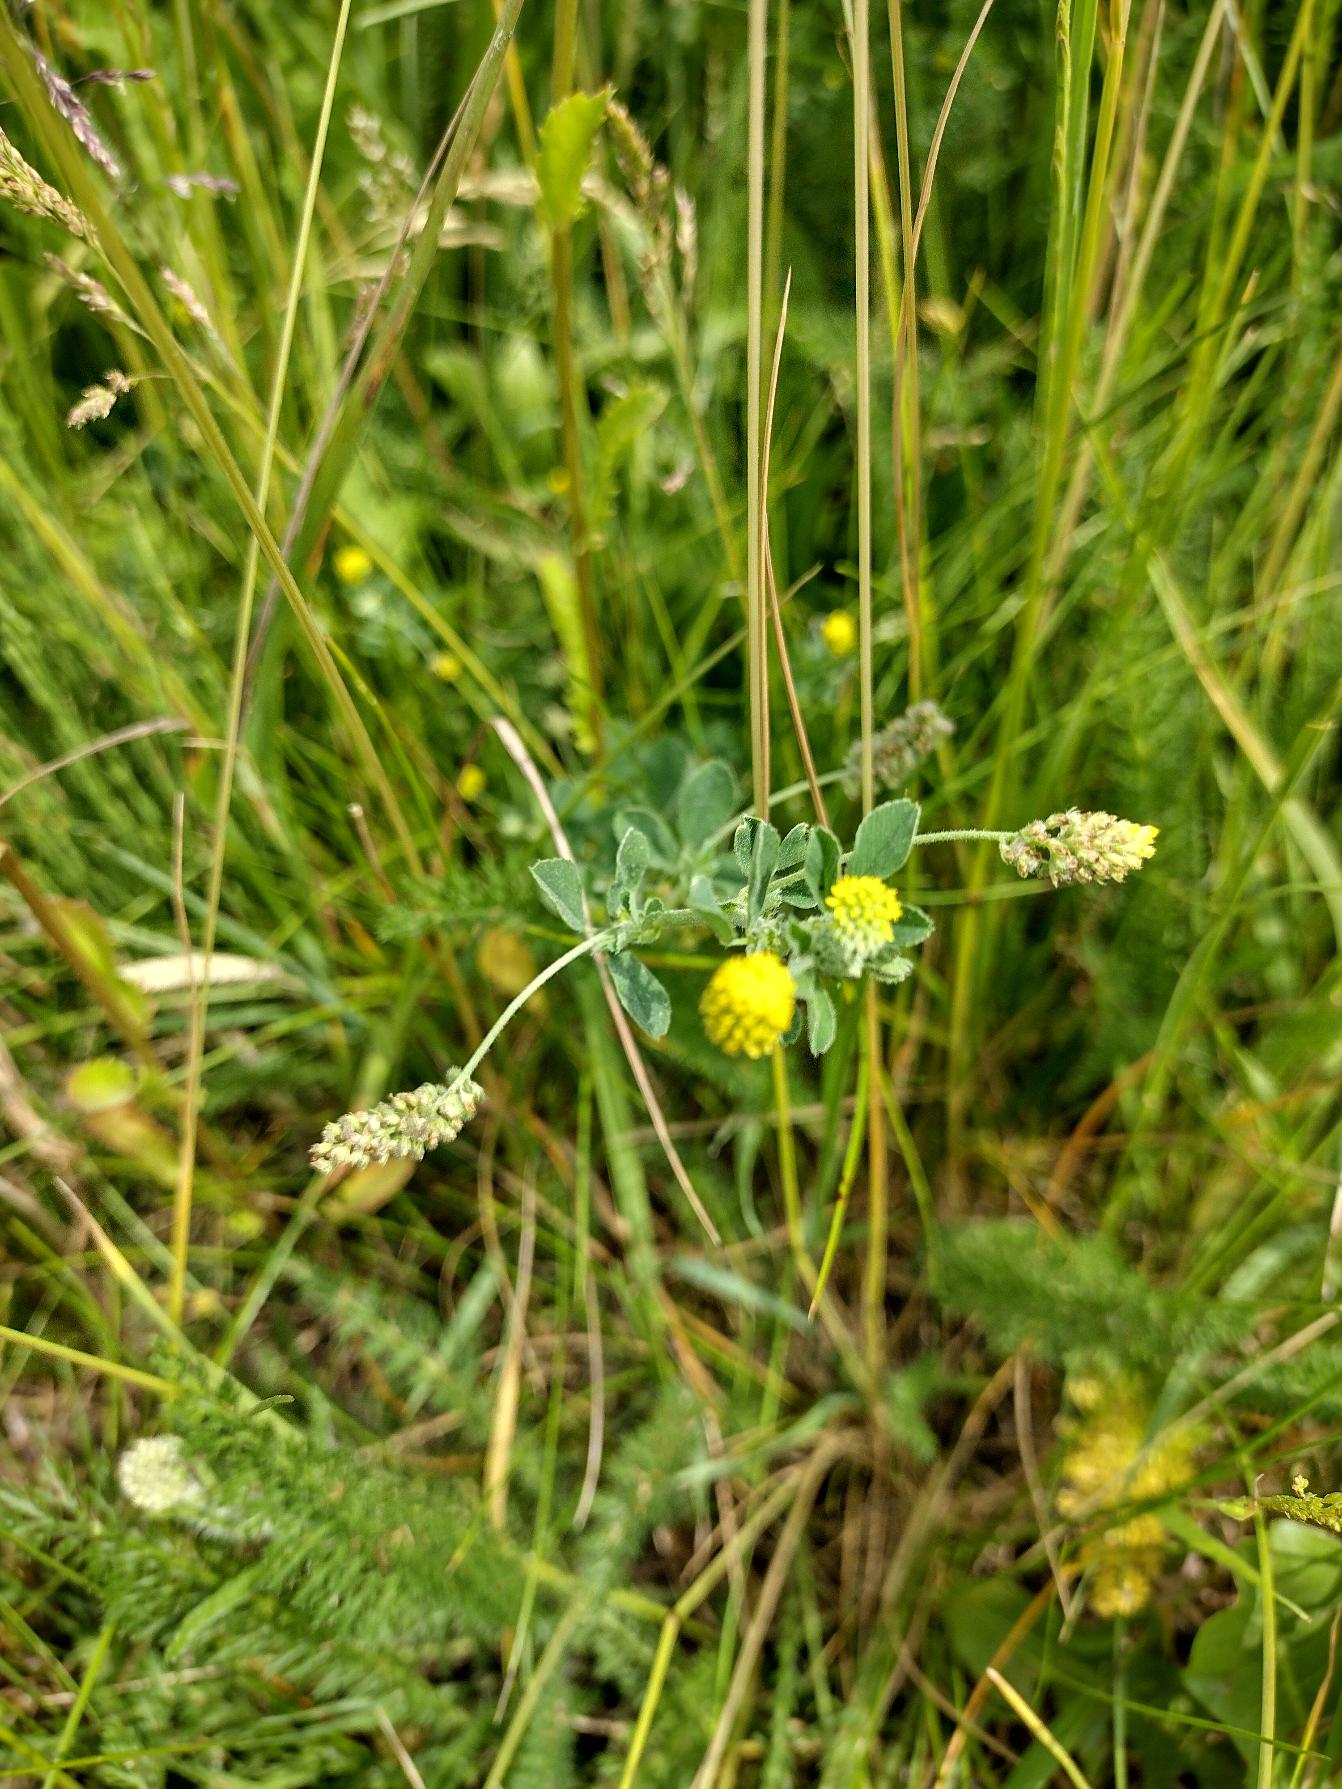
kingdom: Plantae
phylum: Tracheophyta
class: Magnoliopsida
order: Fabales
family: Fabaceae
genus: Medicago
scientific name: Medicago lupulina
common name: Humle-sneglebælg
